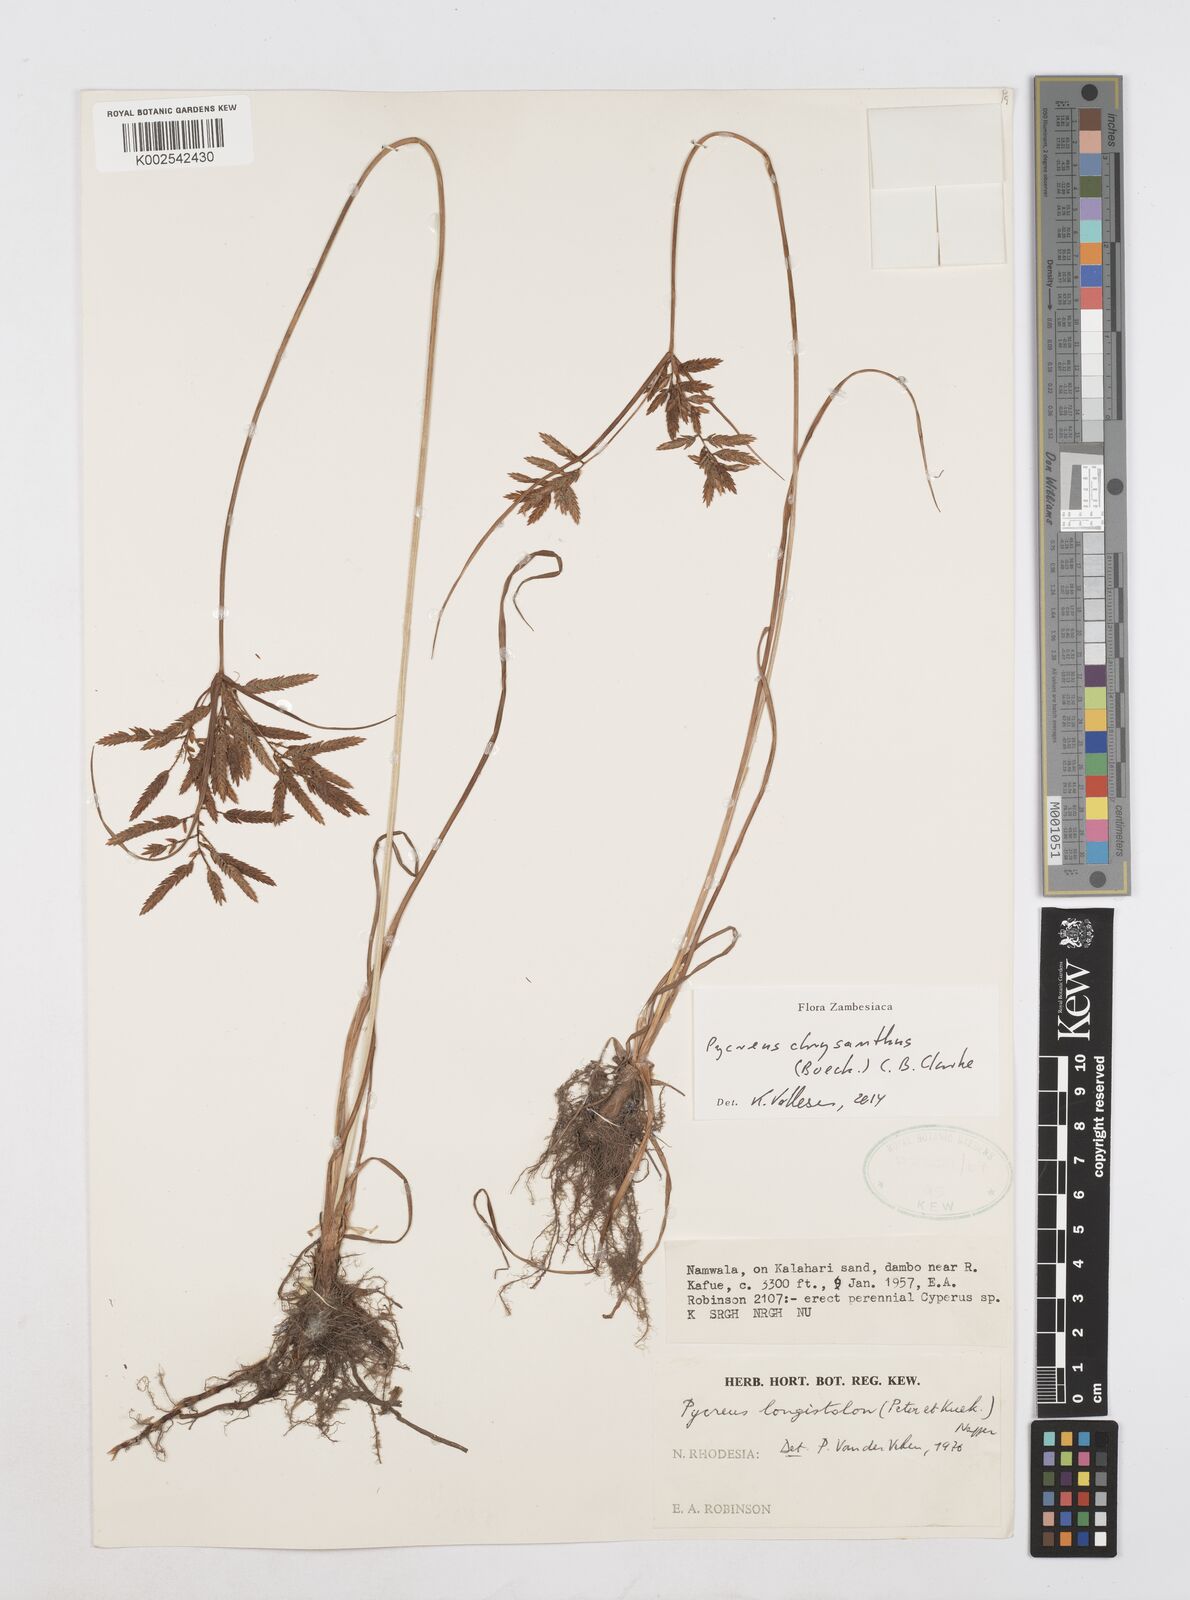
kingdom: Plantae
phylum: Tracheophyta
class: Liliopsida
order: Poales
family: Cyperaceae
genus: Cyperus
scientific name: Cyperus chrysanthus
